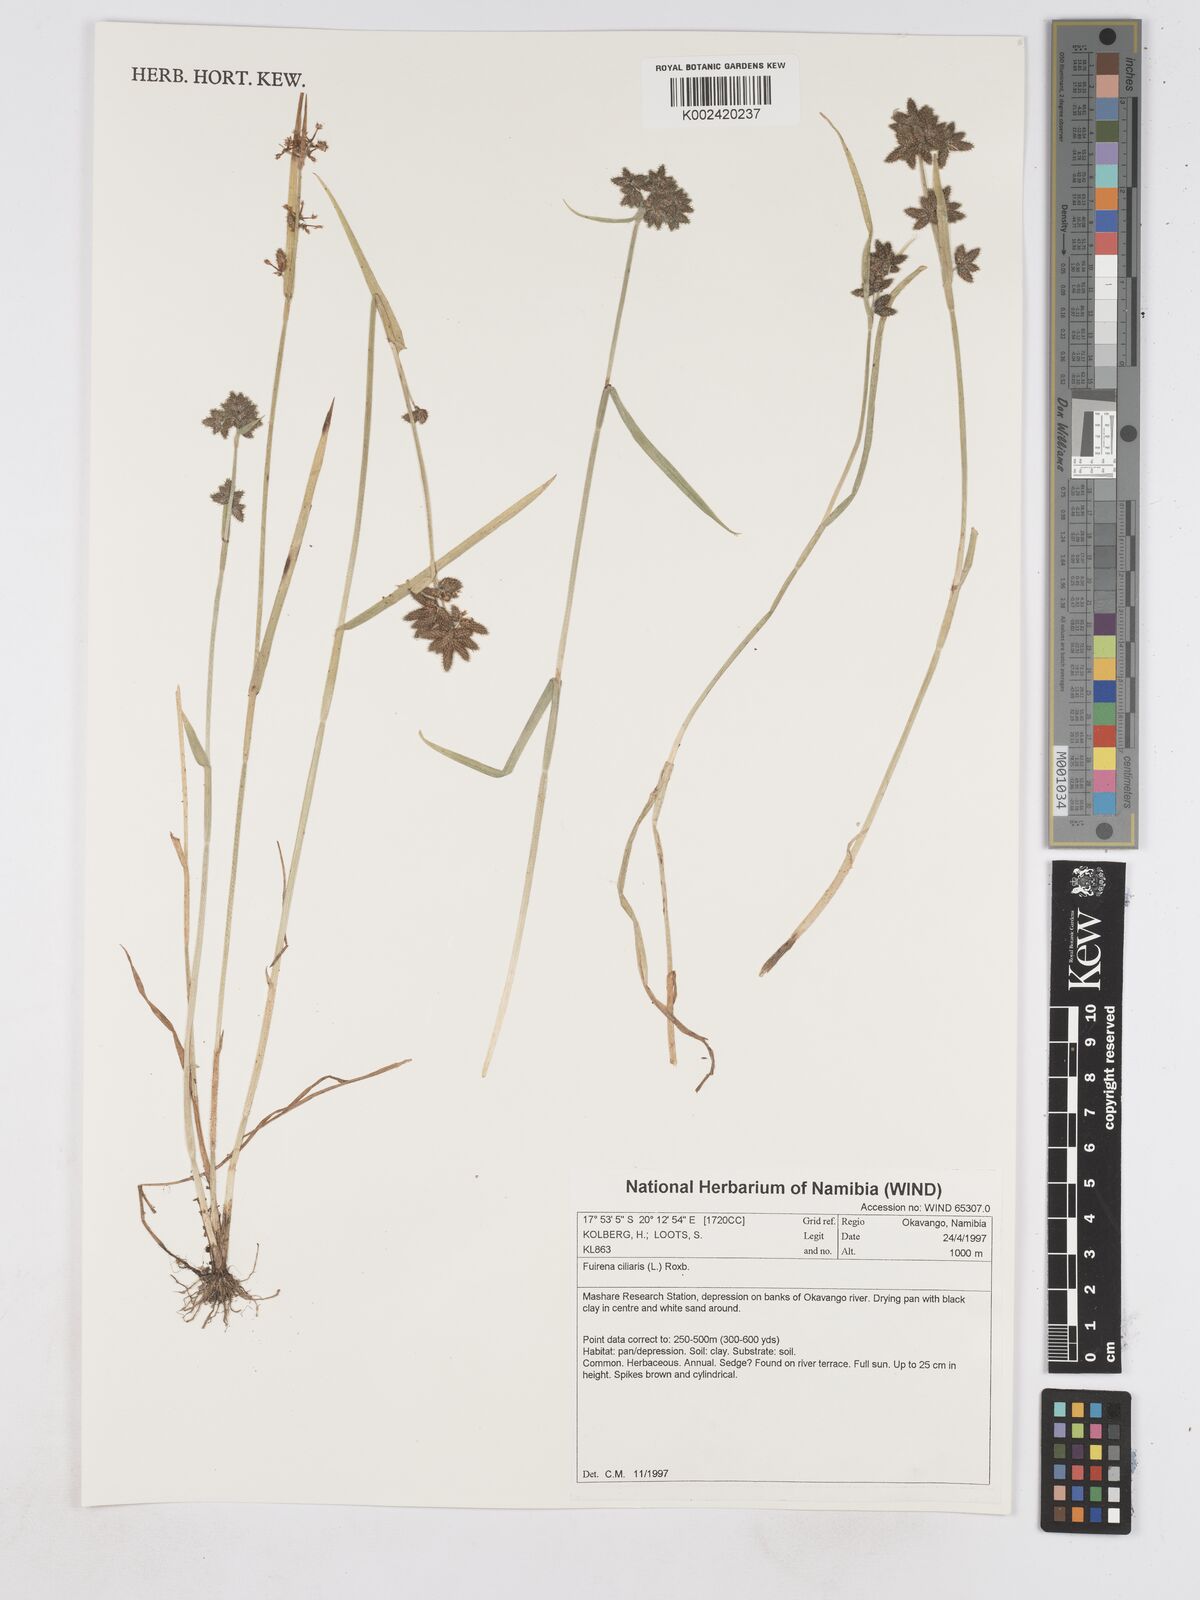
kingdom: Plantae
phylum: Tracheophyta
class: Liliopsida
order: Poales
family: Cyperaceae
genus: Fuirena
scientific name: Fuirena ciliaris
